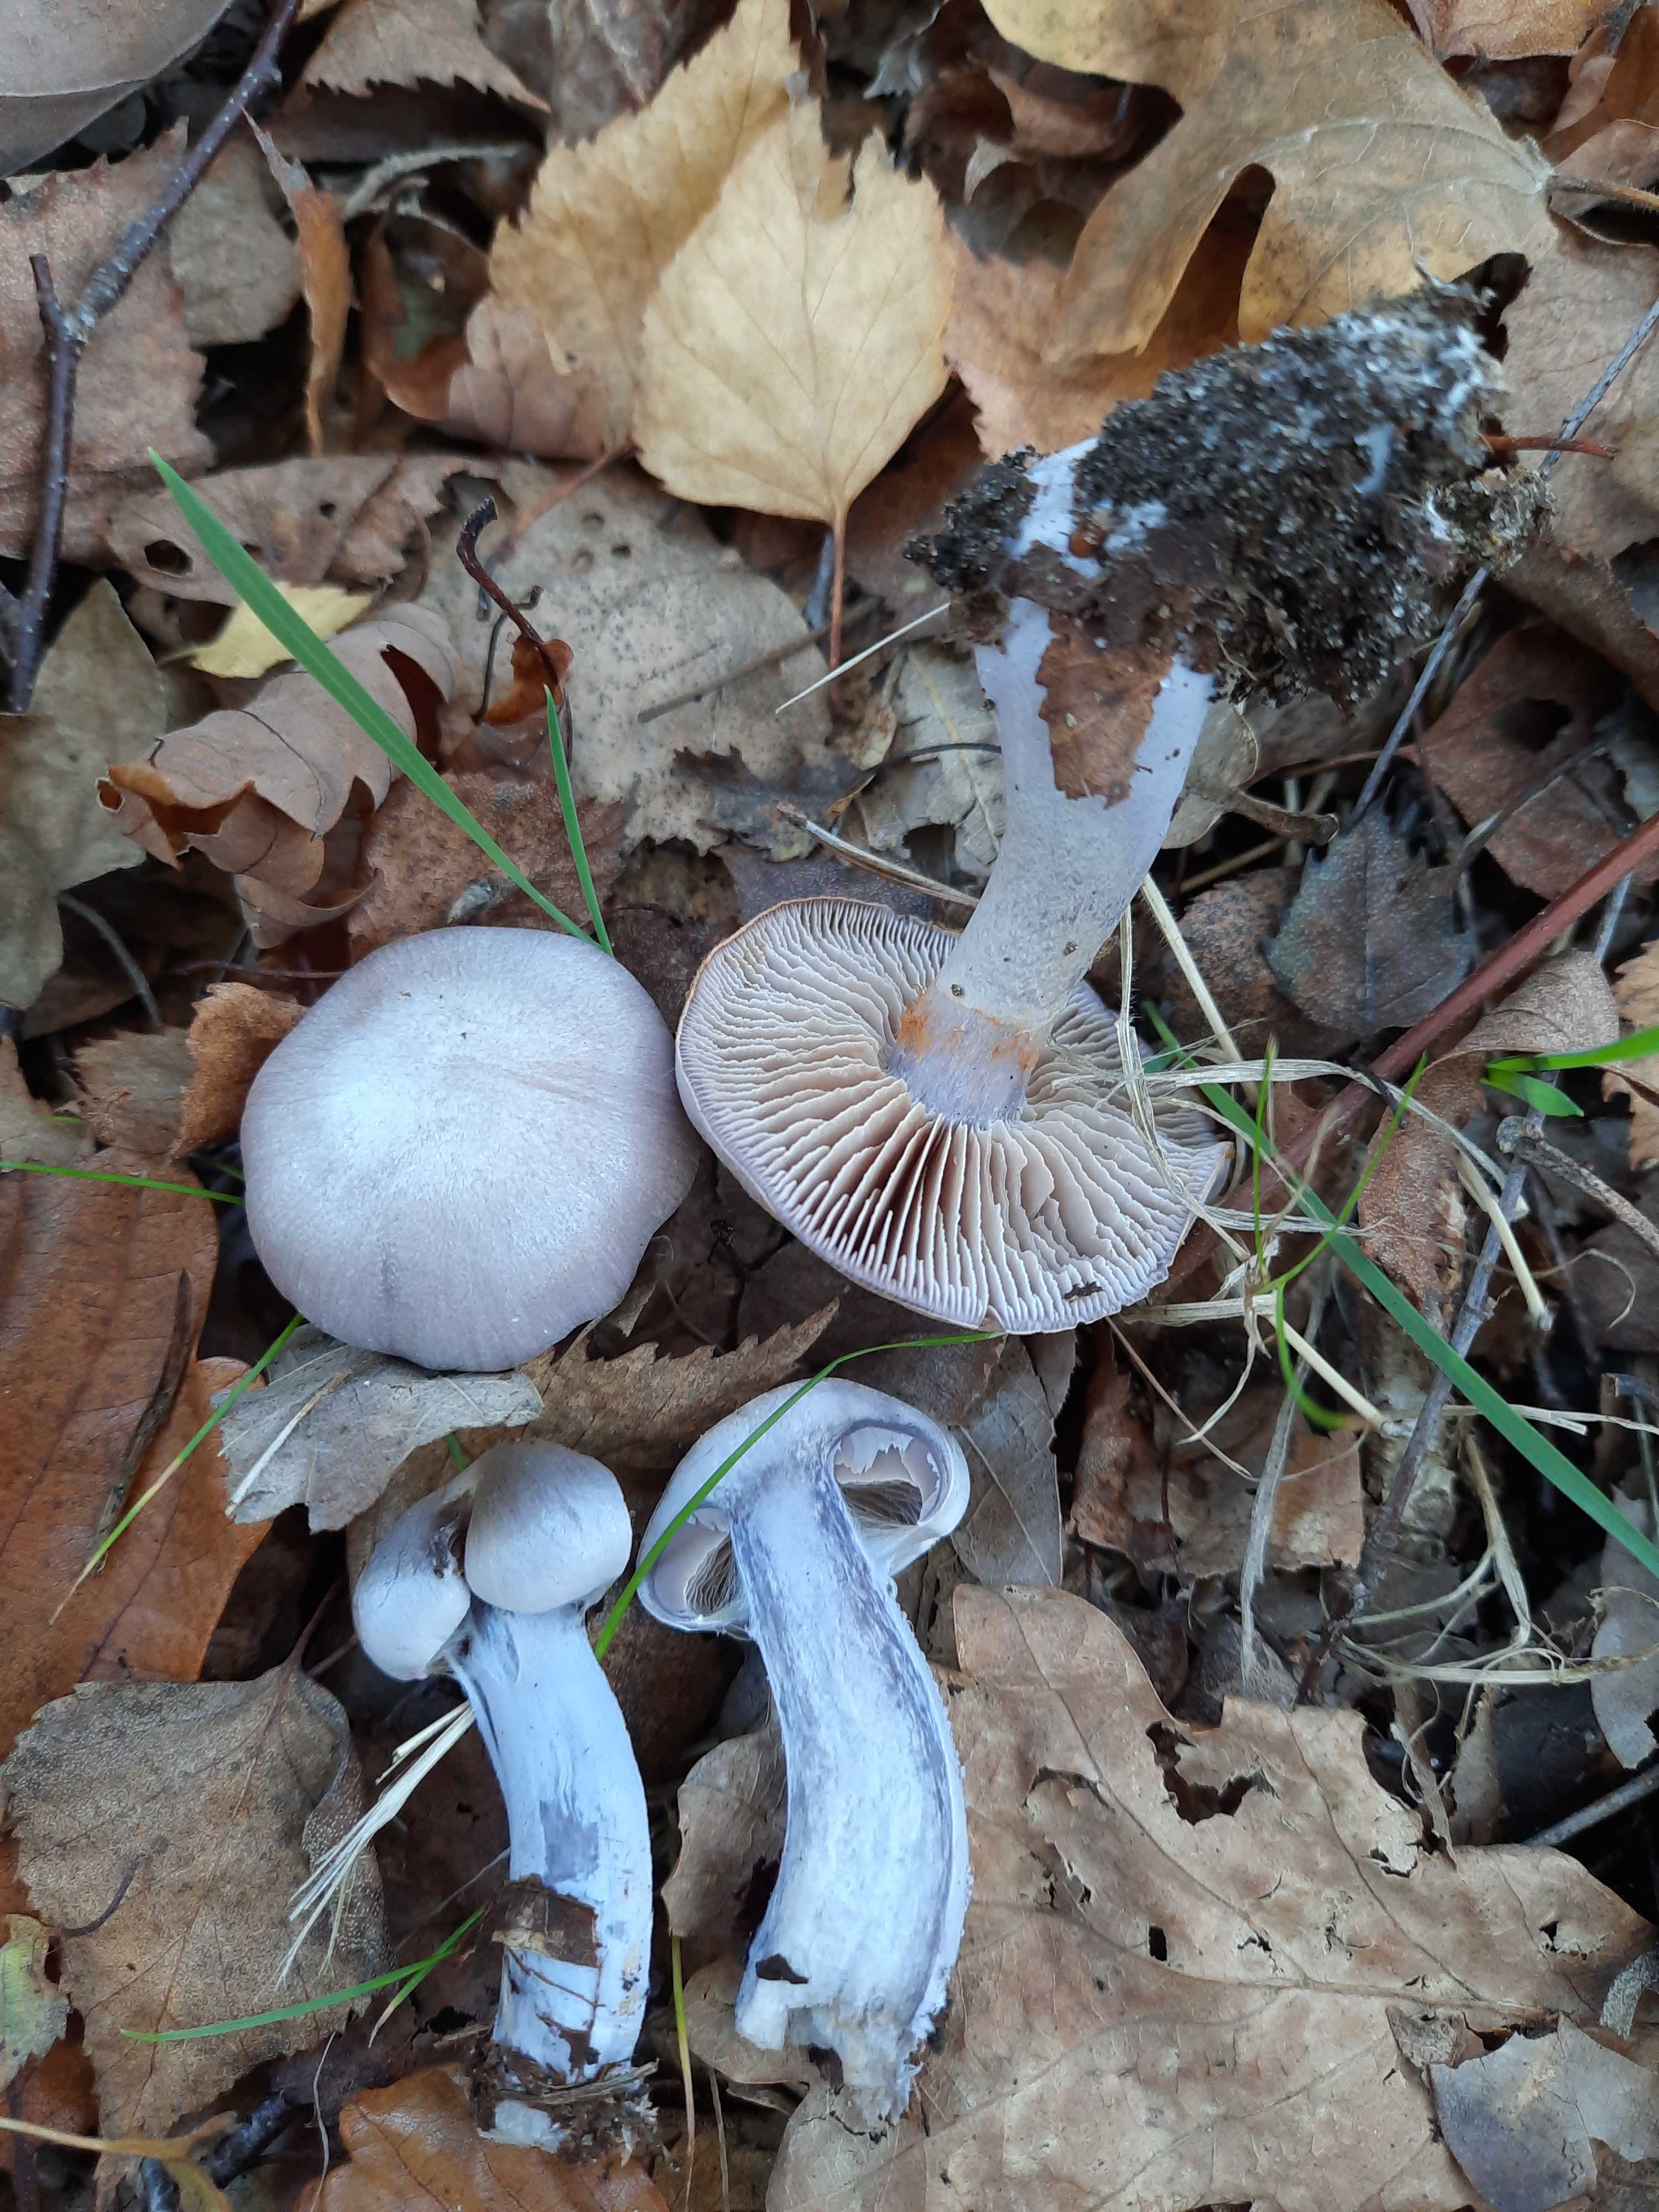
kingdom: Fungi
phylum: Basidiomycota
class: Agaricomycetes
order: Agaricales
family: Cortinariaceae
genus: Cortinarius
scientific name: Cortinarius alboviolaceus
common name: lysviolet slørhat
